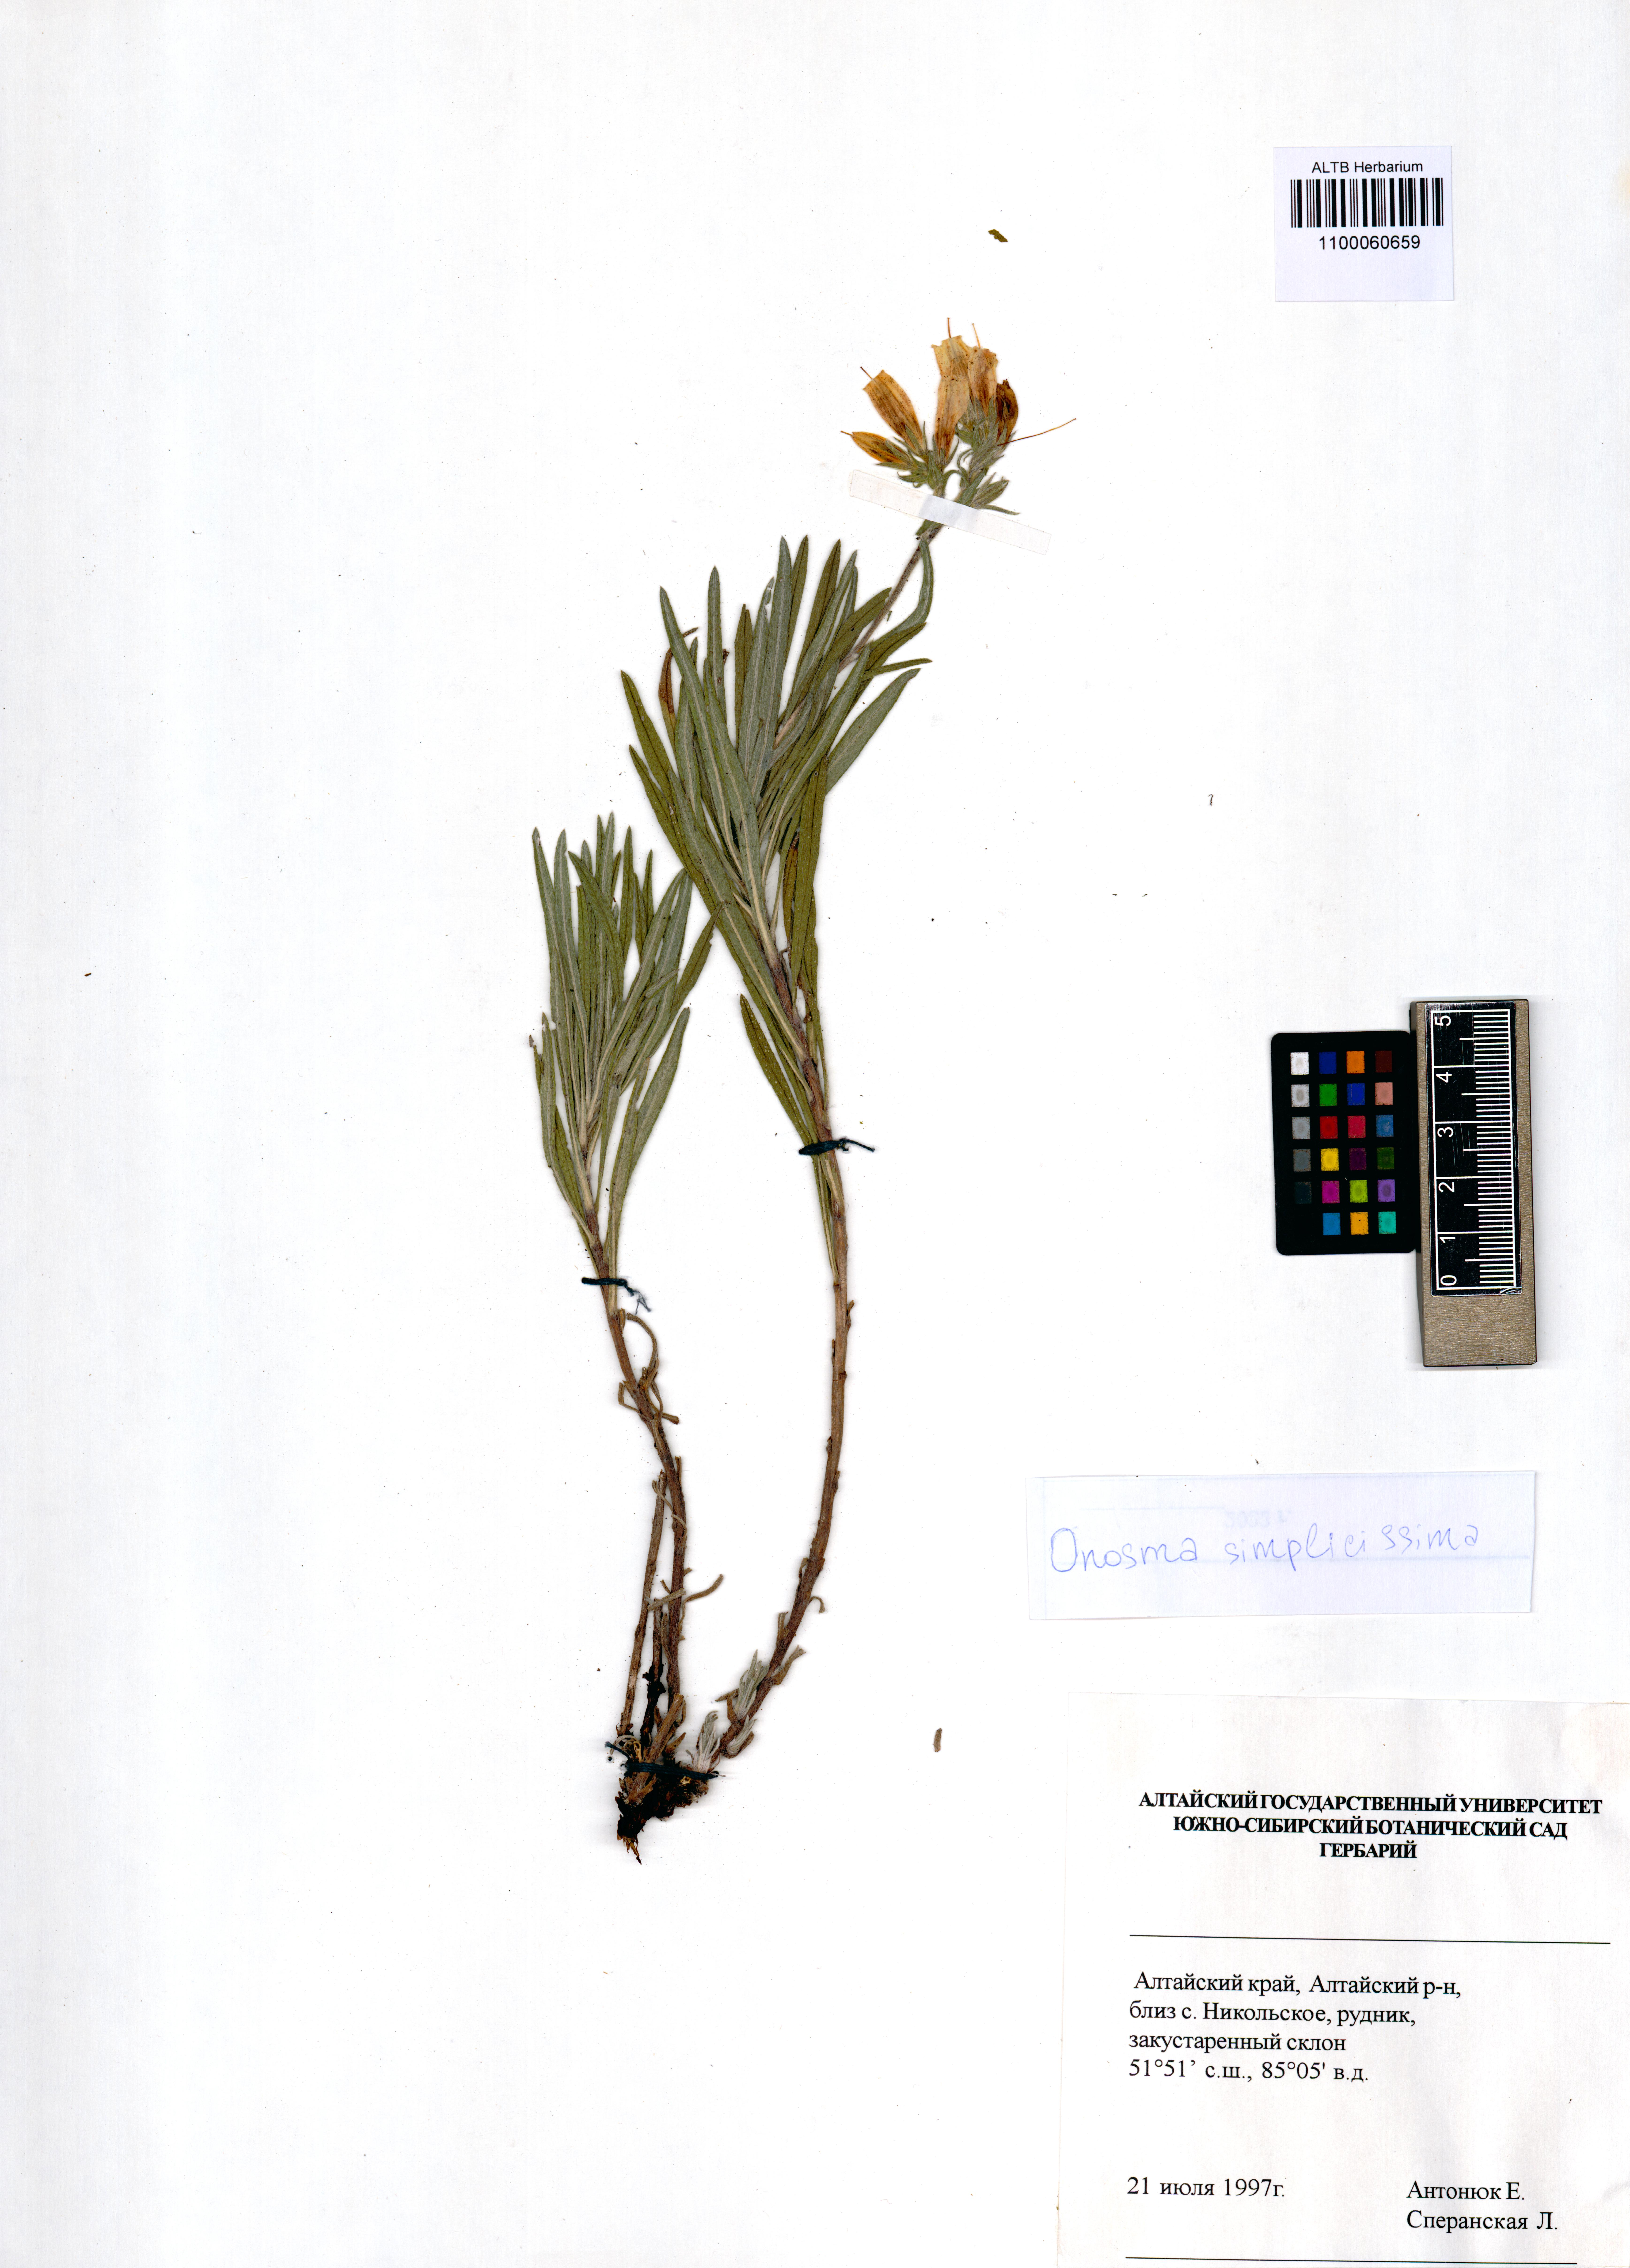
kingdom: Plantae
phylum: Tracheophyta
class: Magnoliopsida
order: Boraginales
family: Boraginaceae
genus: Onosma
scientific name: Onosma simplicissima
